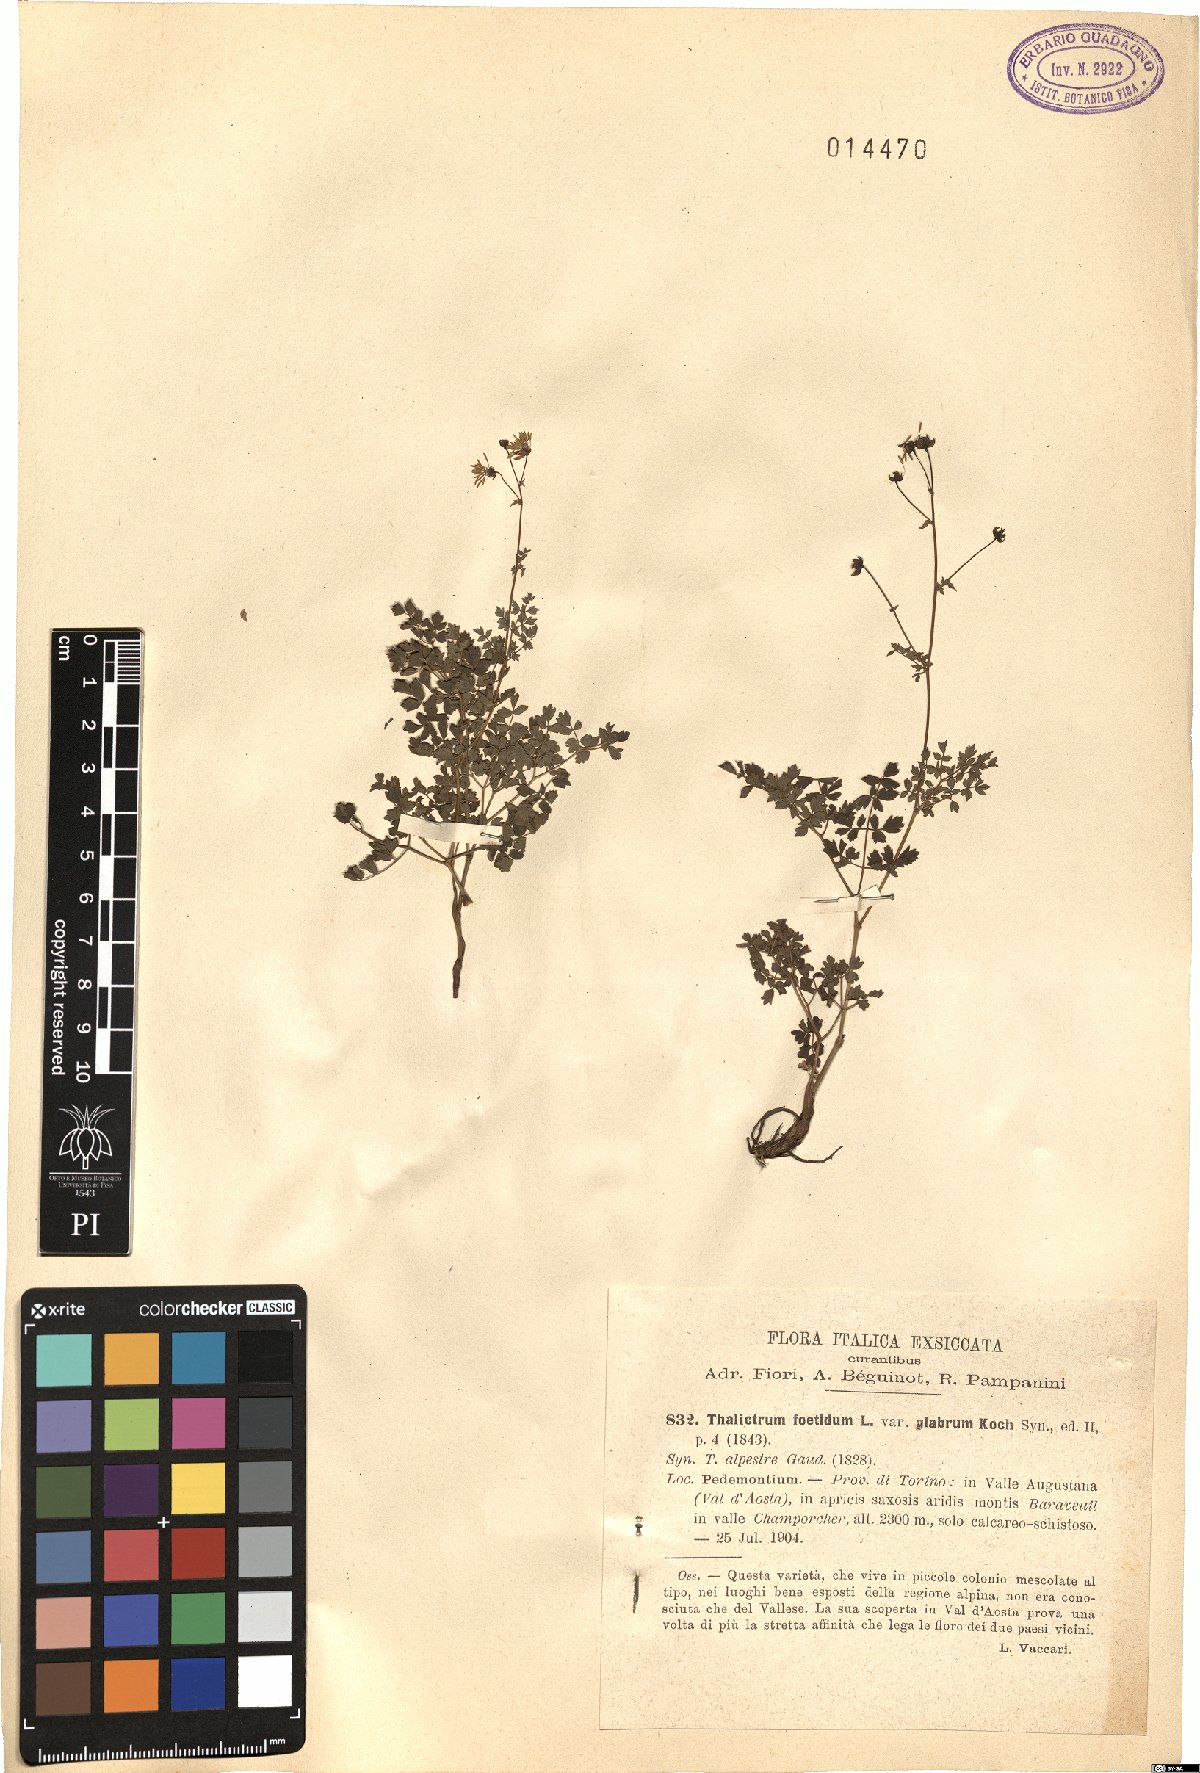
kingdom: Plantae
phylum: Tracheophyta
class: Magnoliopsida
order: Ranunculales
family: Ranunculaceae
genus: Thalictrum
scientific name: Thalictrum foetidum
